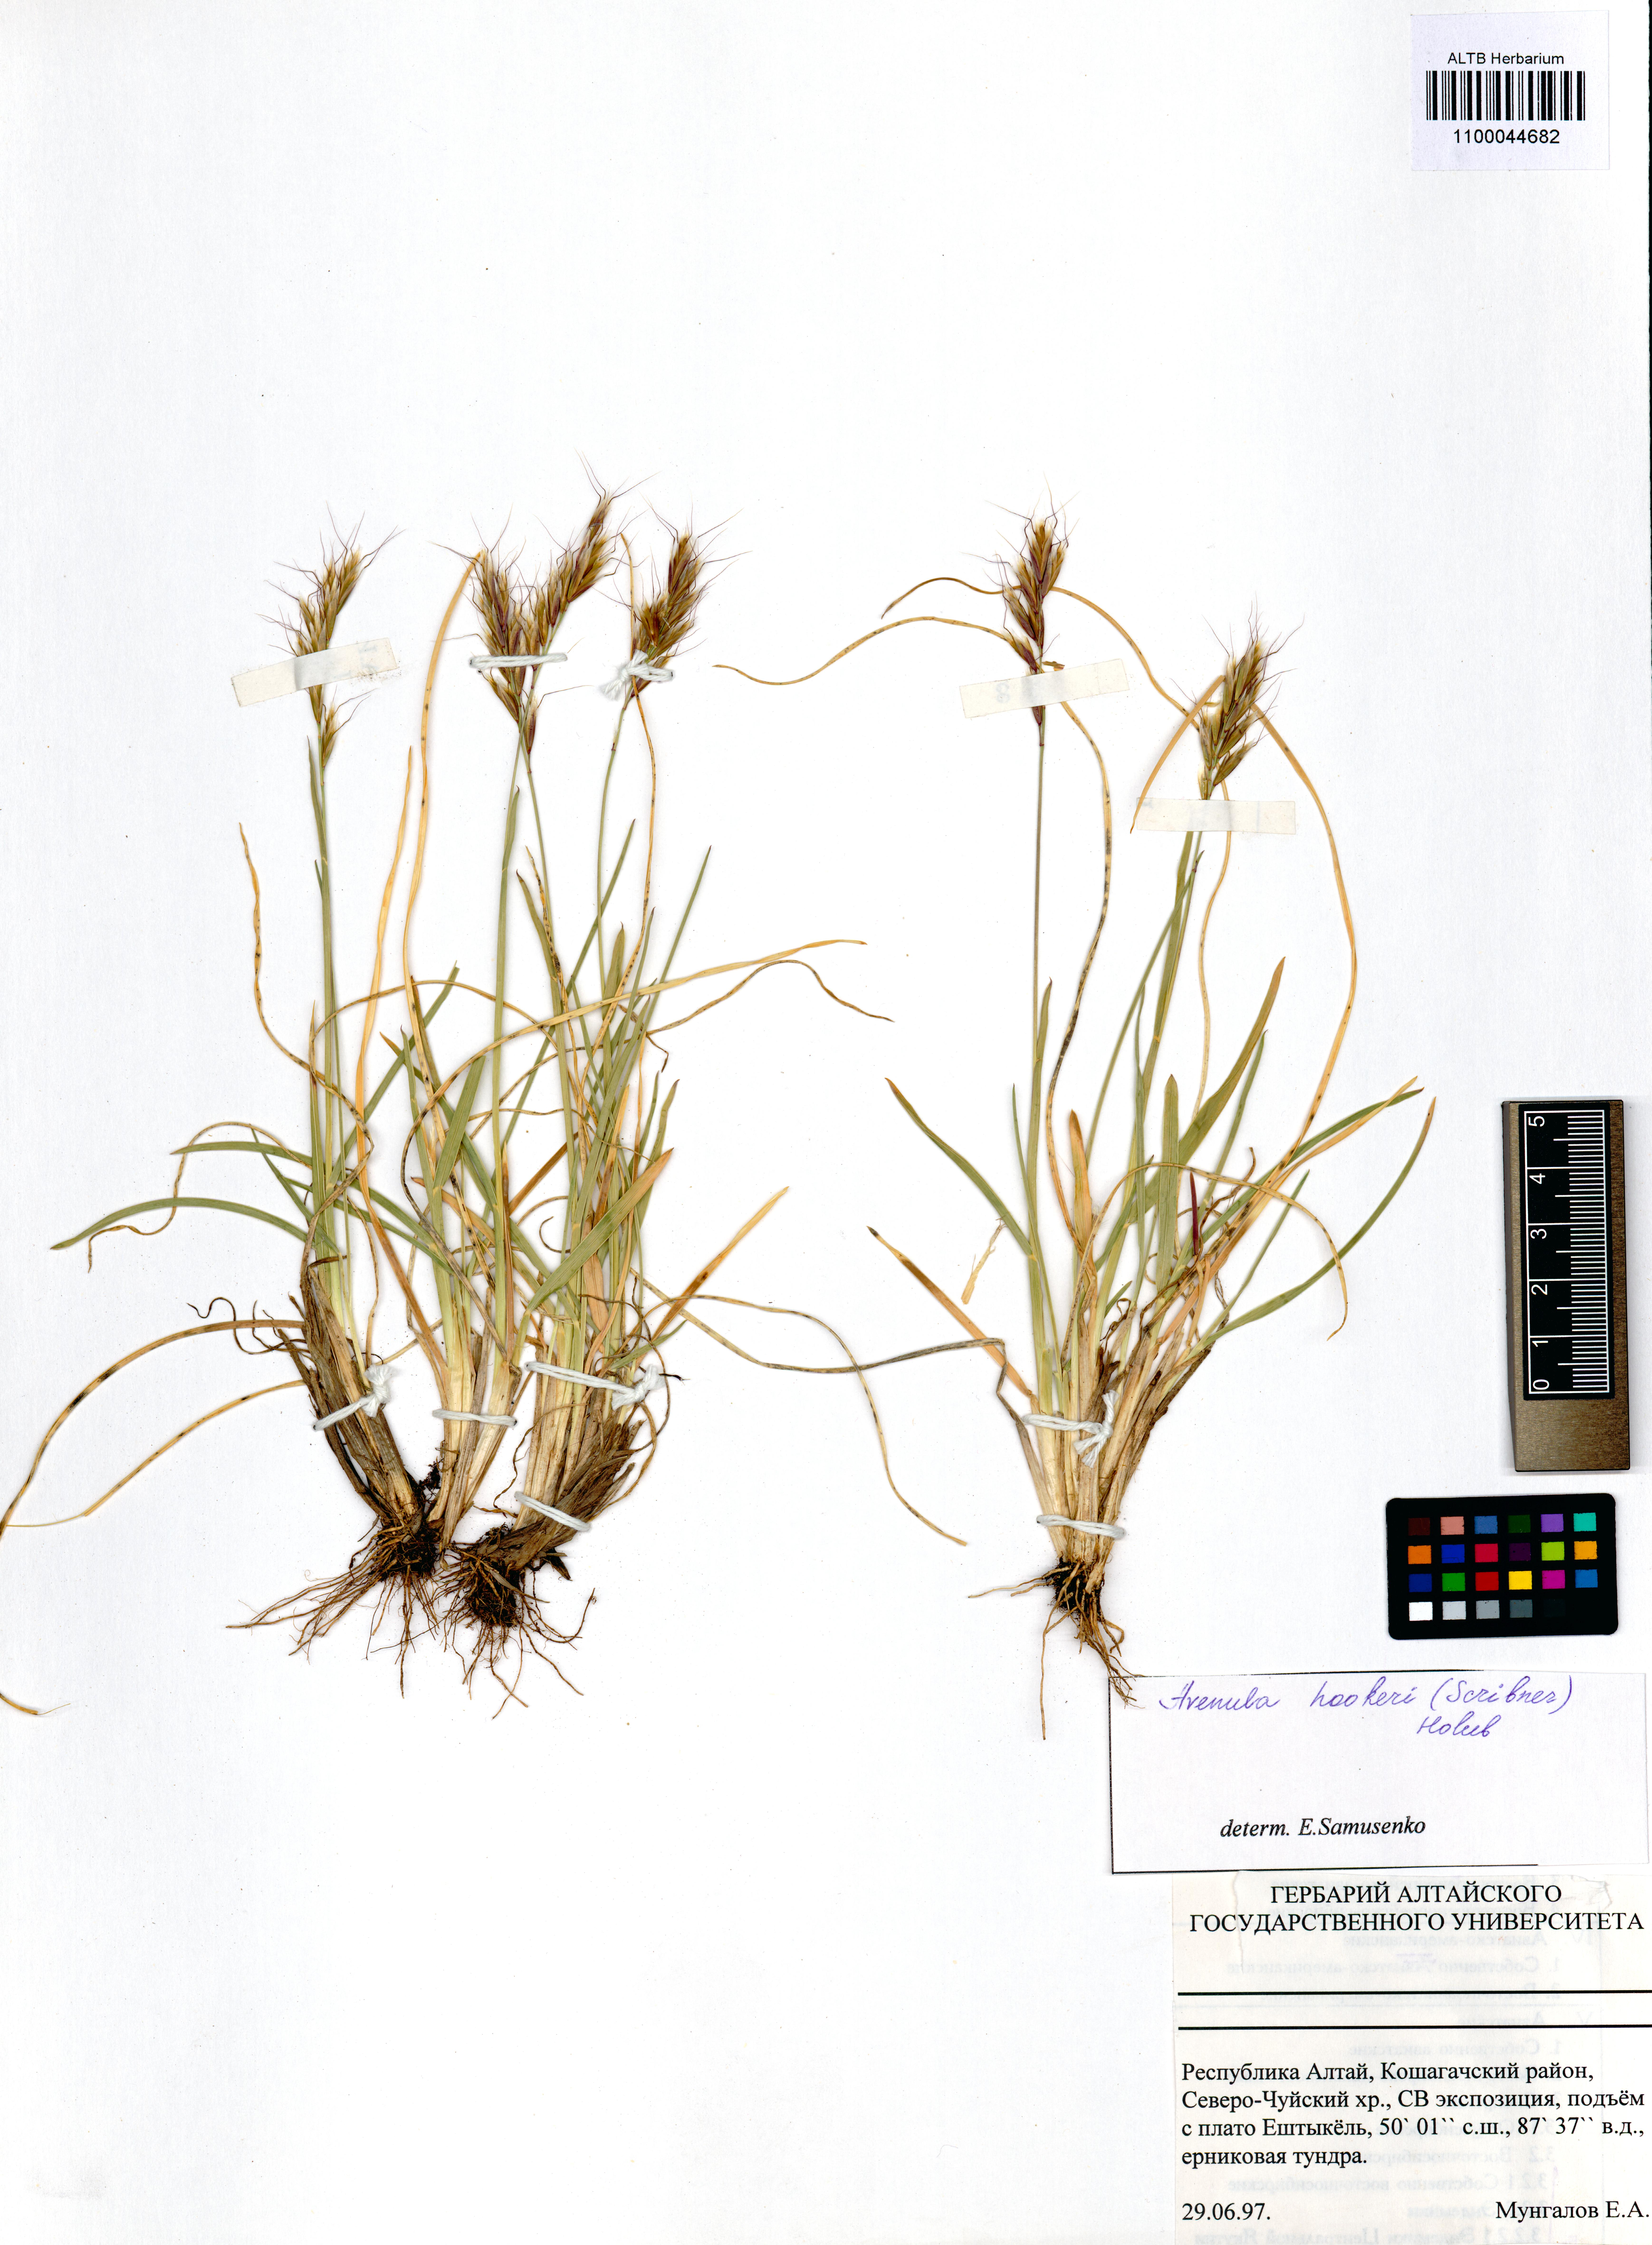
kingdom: Plantae
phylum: Tracheophyta
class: Liliopsida
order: Poales
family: Poaceae
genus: Helictochloa
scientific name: Helictochloa hookeri
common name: Hooker's alpine oatgrass
